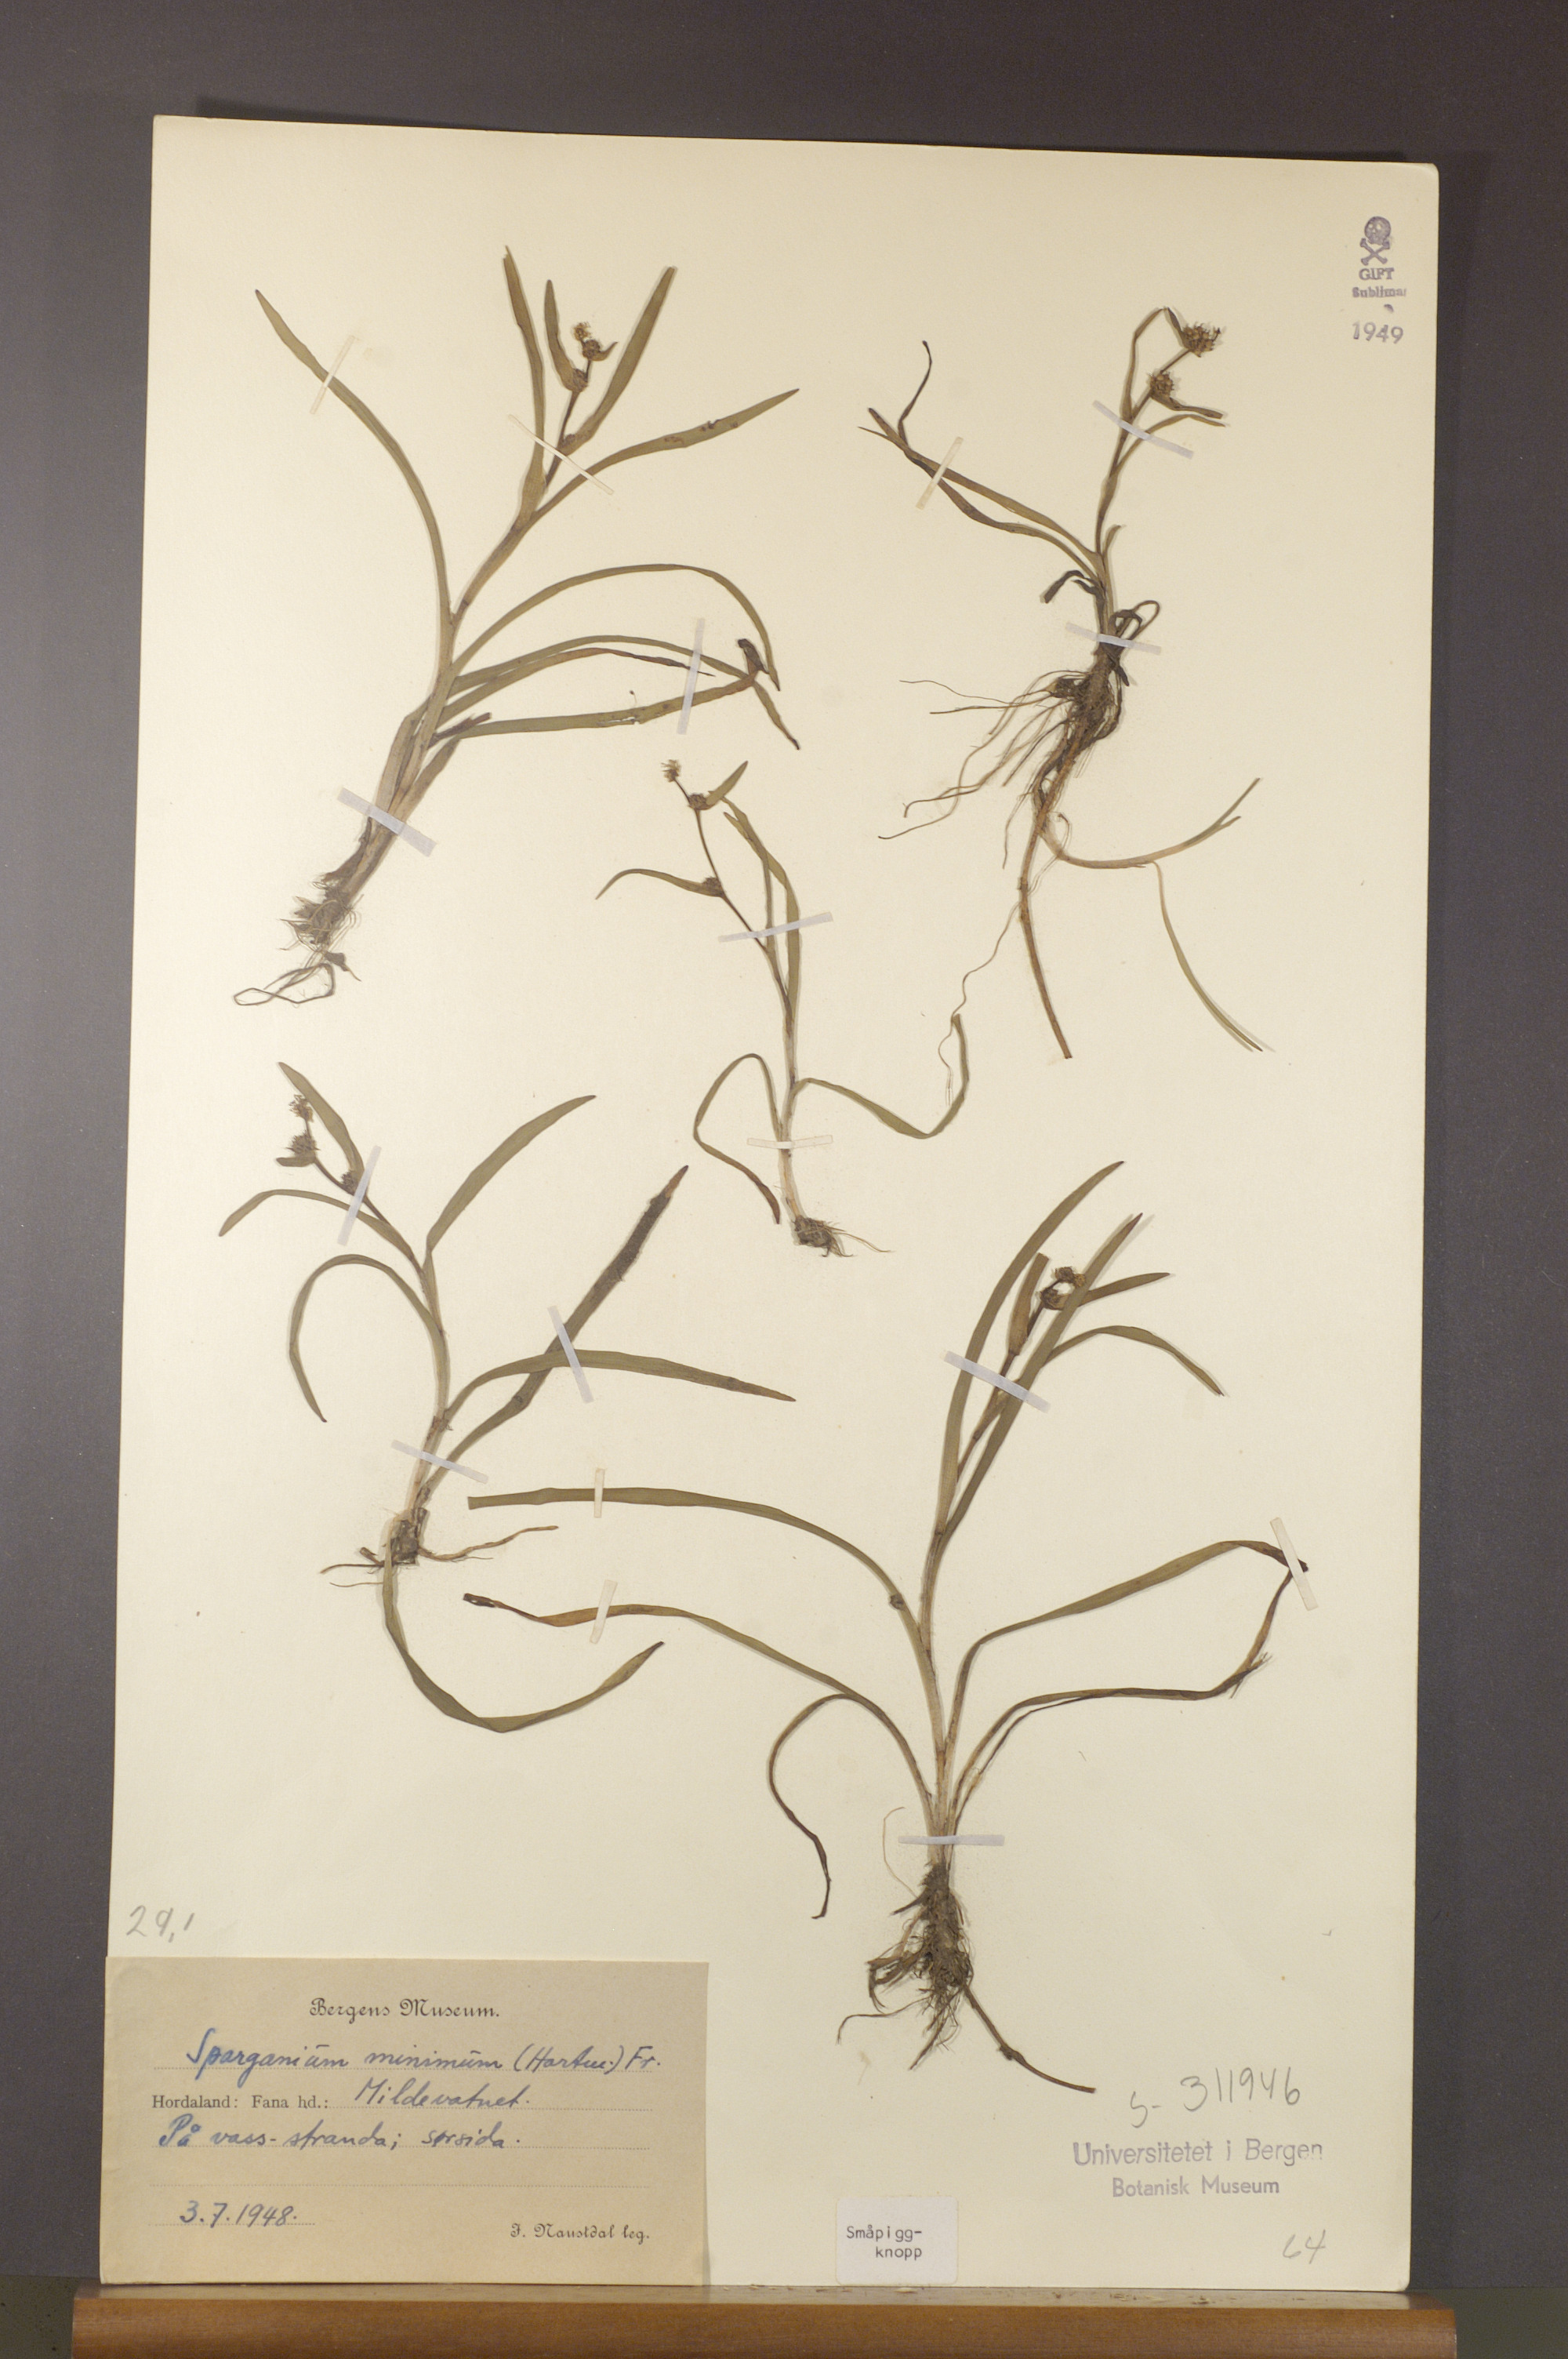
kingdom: Plantae
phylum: Tracheophyta
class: Liliopsida
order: Poales
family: Typhaceae
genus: Sparganium
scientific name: Sparganium natans
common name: Least bur-reed
